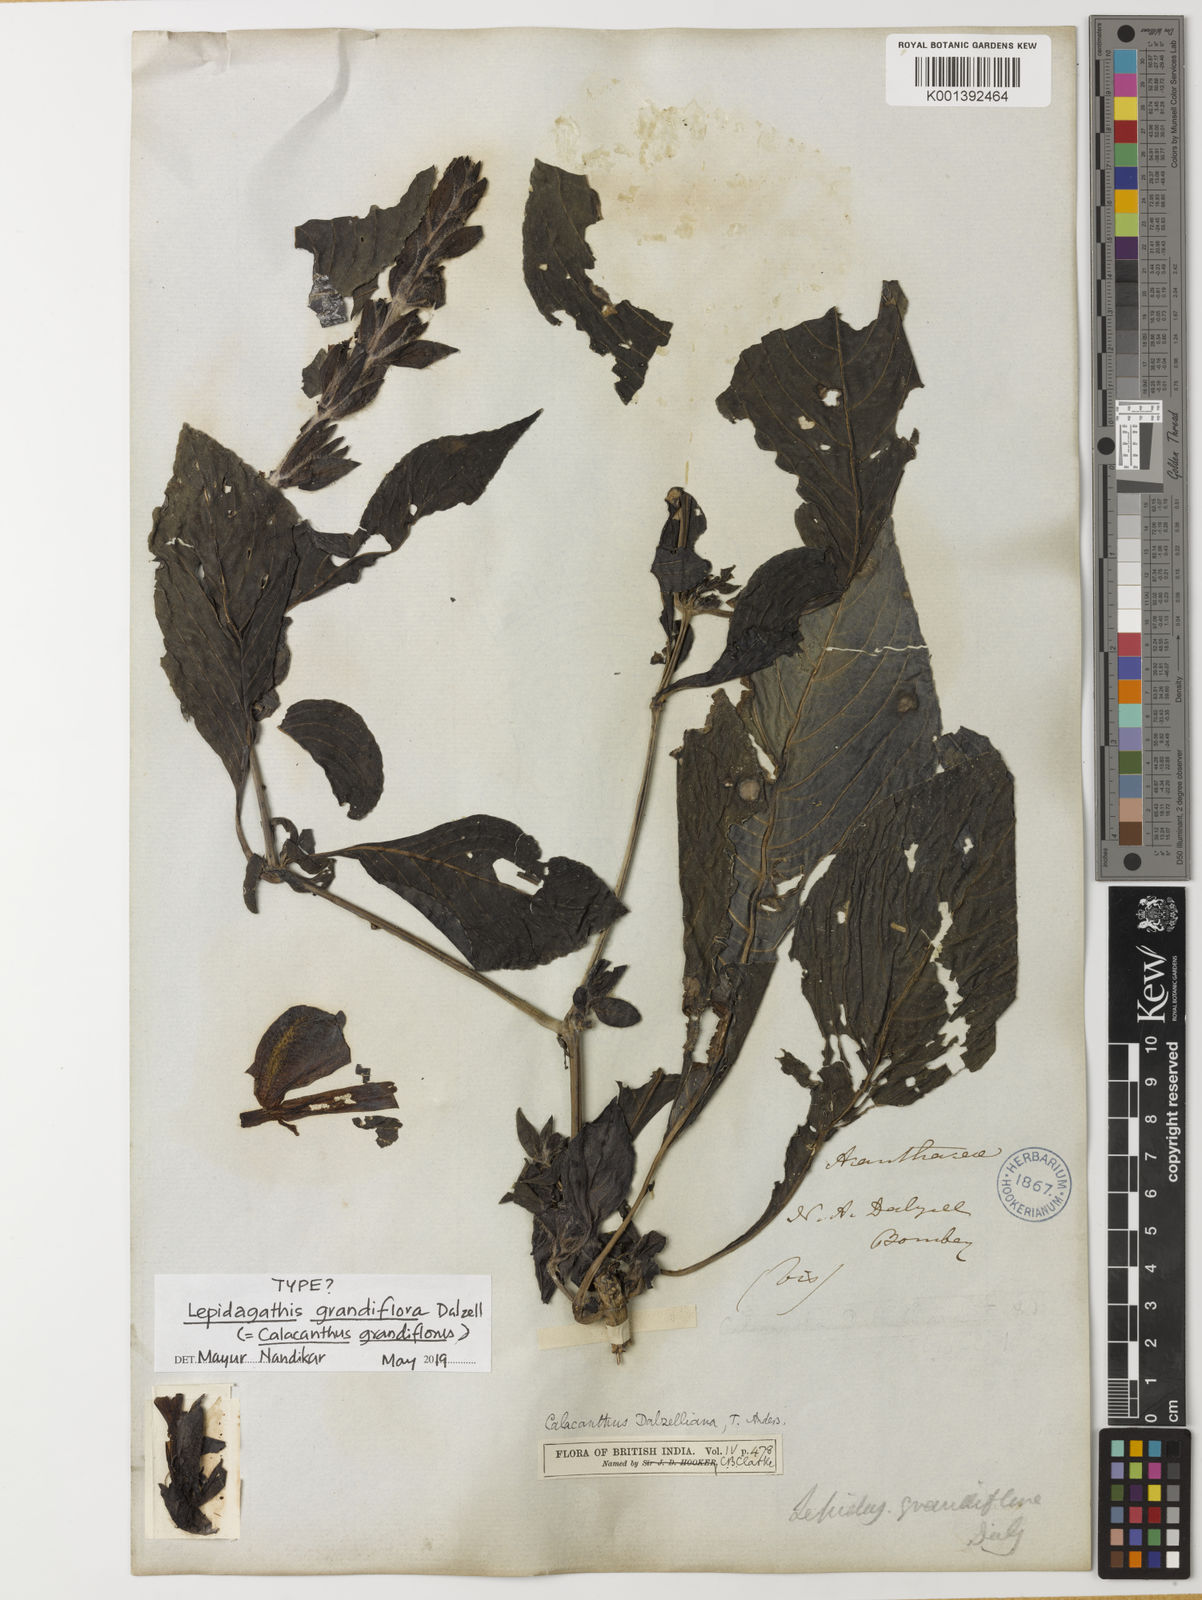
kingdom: Plantae
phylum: Tracheophyta
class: Magnoliopsida
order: Lamiales
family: Acanthaceae
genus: Calacanthus
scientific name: Calacanthus
